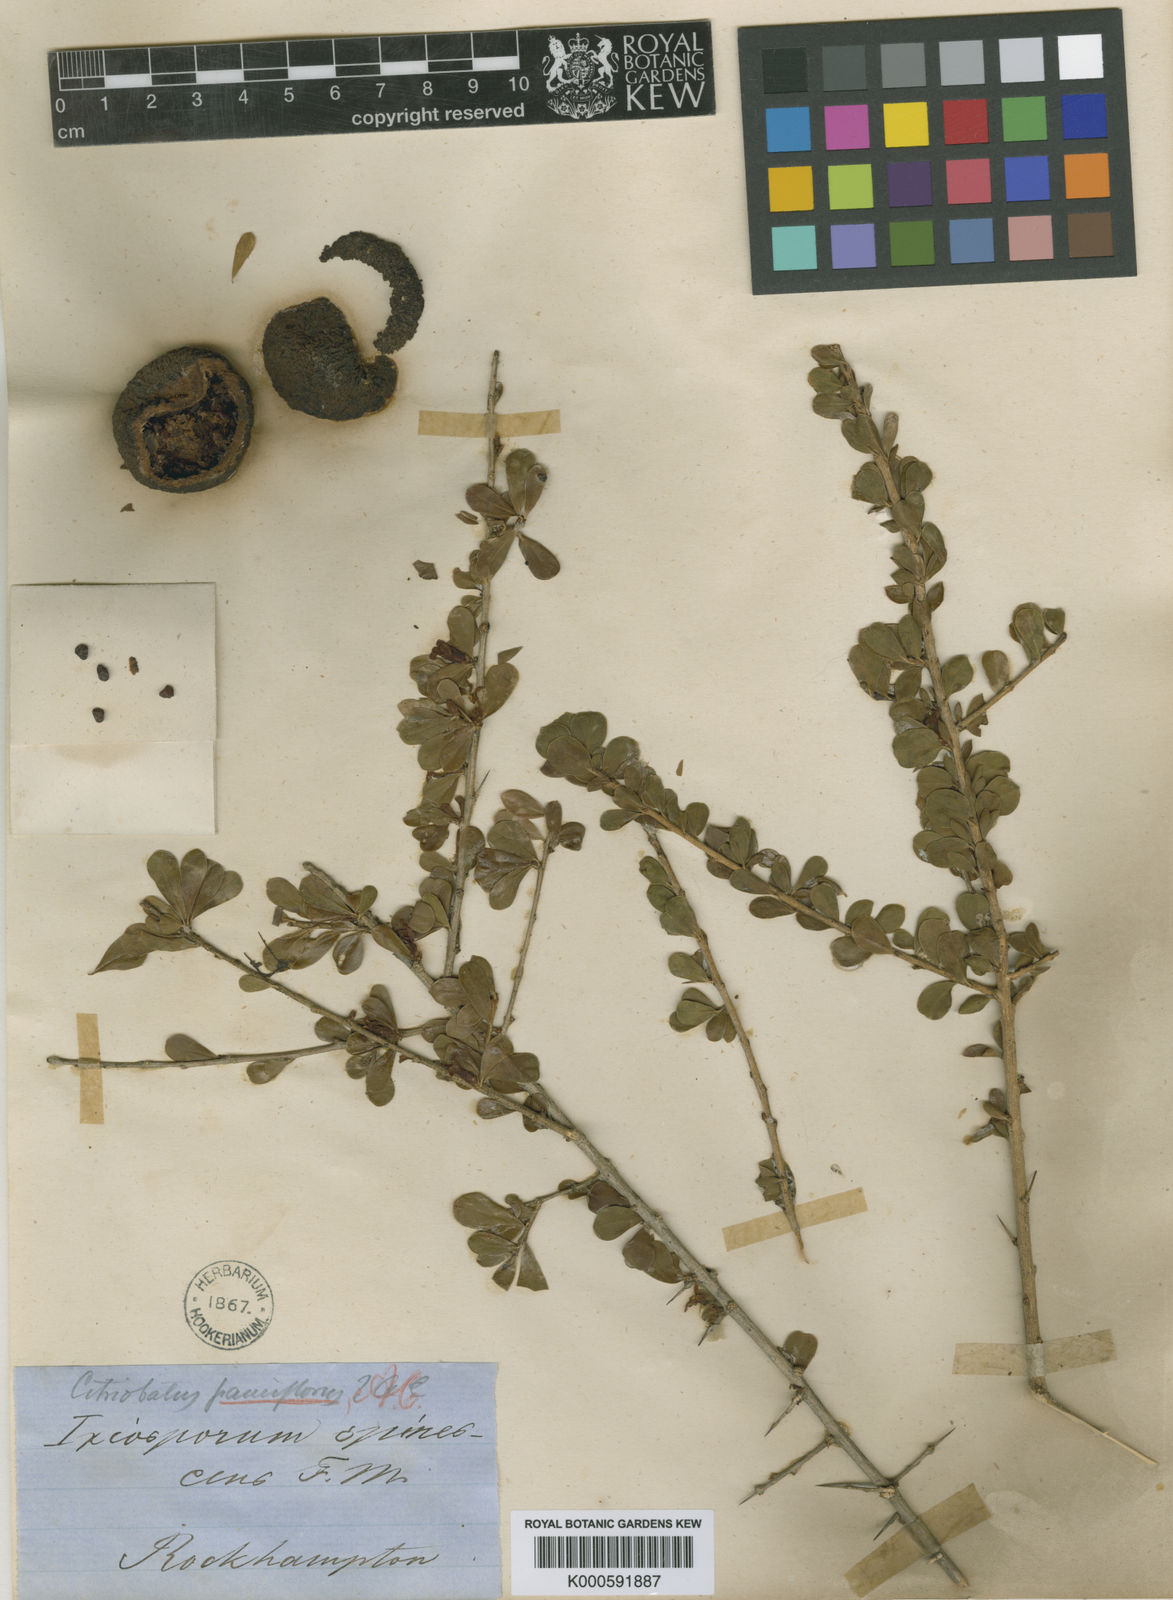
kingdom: Plantae
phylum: Tracheophyta
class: Magnoliopsida
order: Apiales
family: Pittosporaceae
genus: Citriobatus
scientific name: Citriobatus
